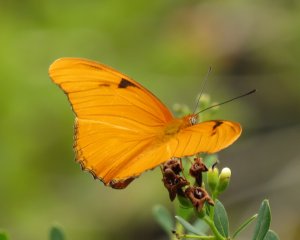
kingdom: Animalia
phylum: Arthropoda
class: Insecta
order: Lepidoptera
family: Nymphalidae
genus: Dryas
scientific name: Dryas iulia
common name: Julia
